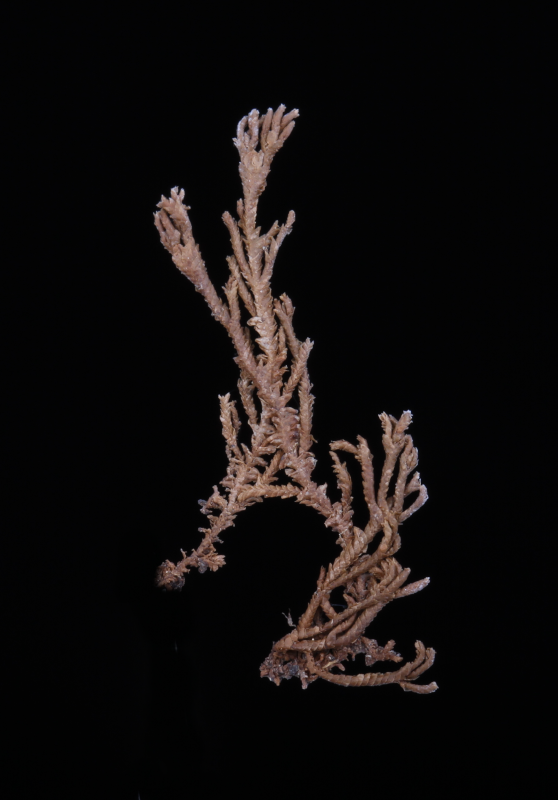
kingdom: Plantae
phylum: Marchantiophyta
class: Jungermanniopsida
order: Porellales
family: Lejeuneaceae
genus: Thysananthus
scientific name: Thysananthus spathulistipus
